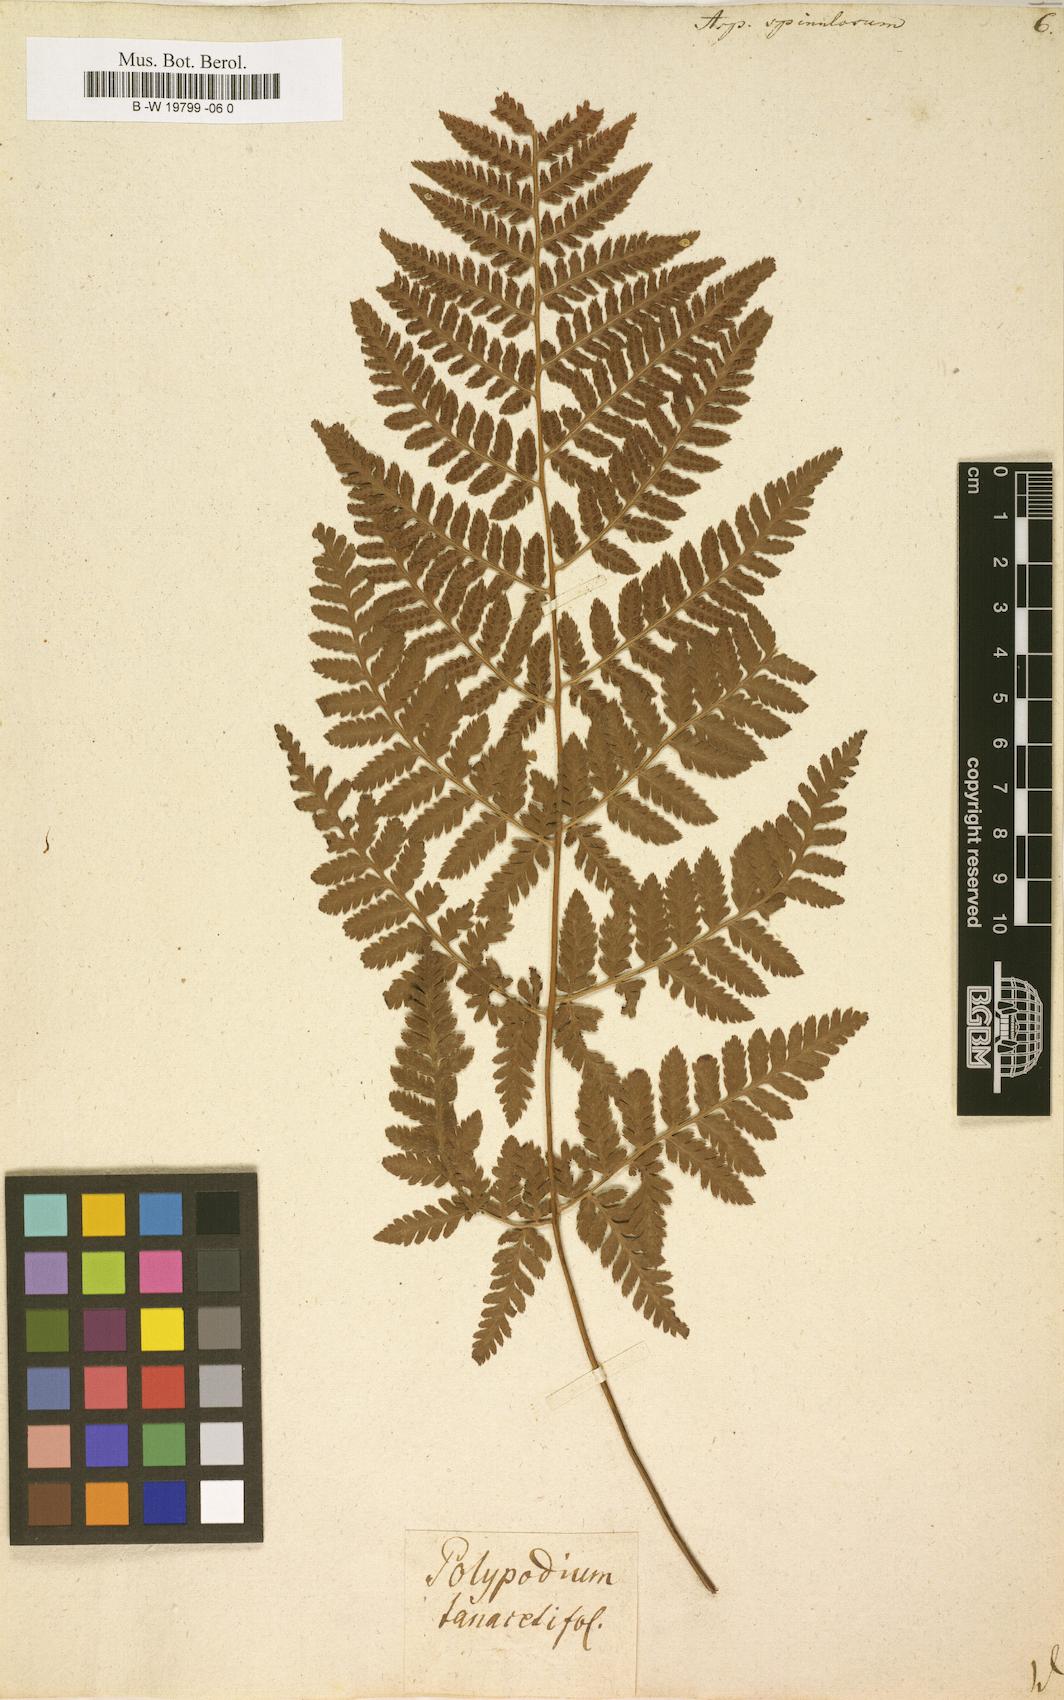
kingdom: Plantae
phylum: Tracheophyta
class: Polypodiopsida
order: Polypodiales
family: Dryopteridaceae
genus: Dryopteris
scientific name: Dryopteris
